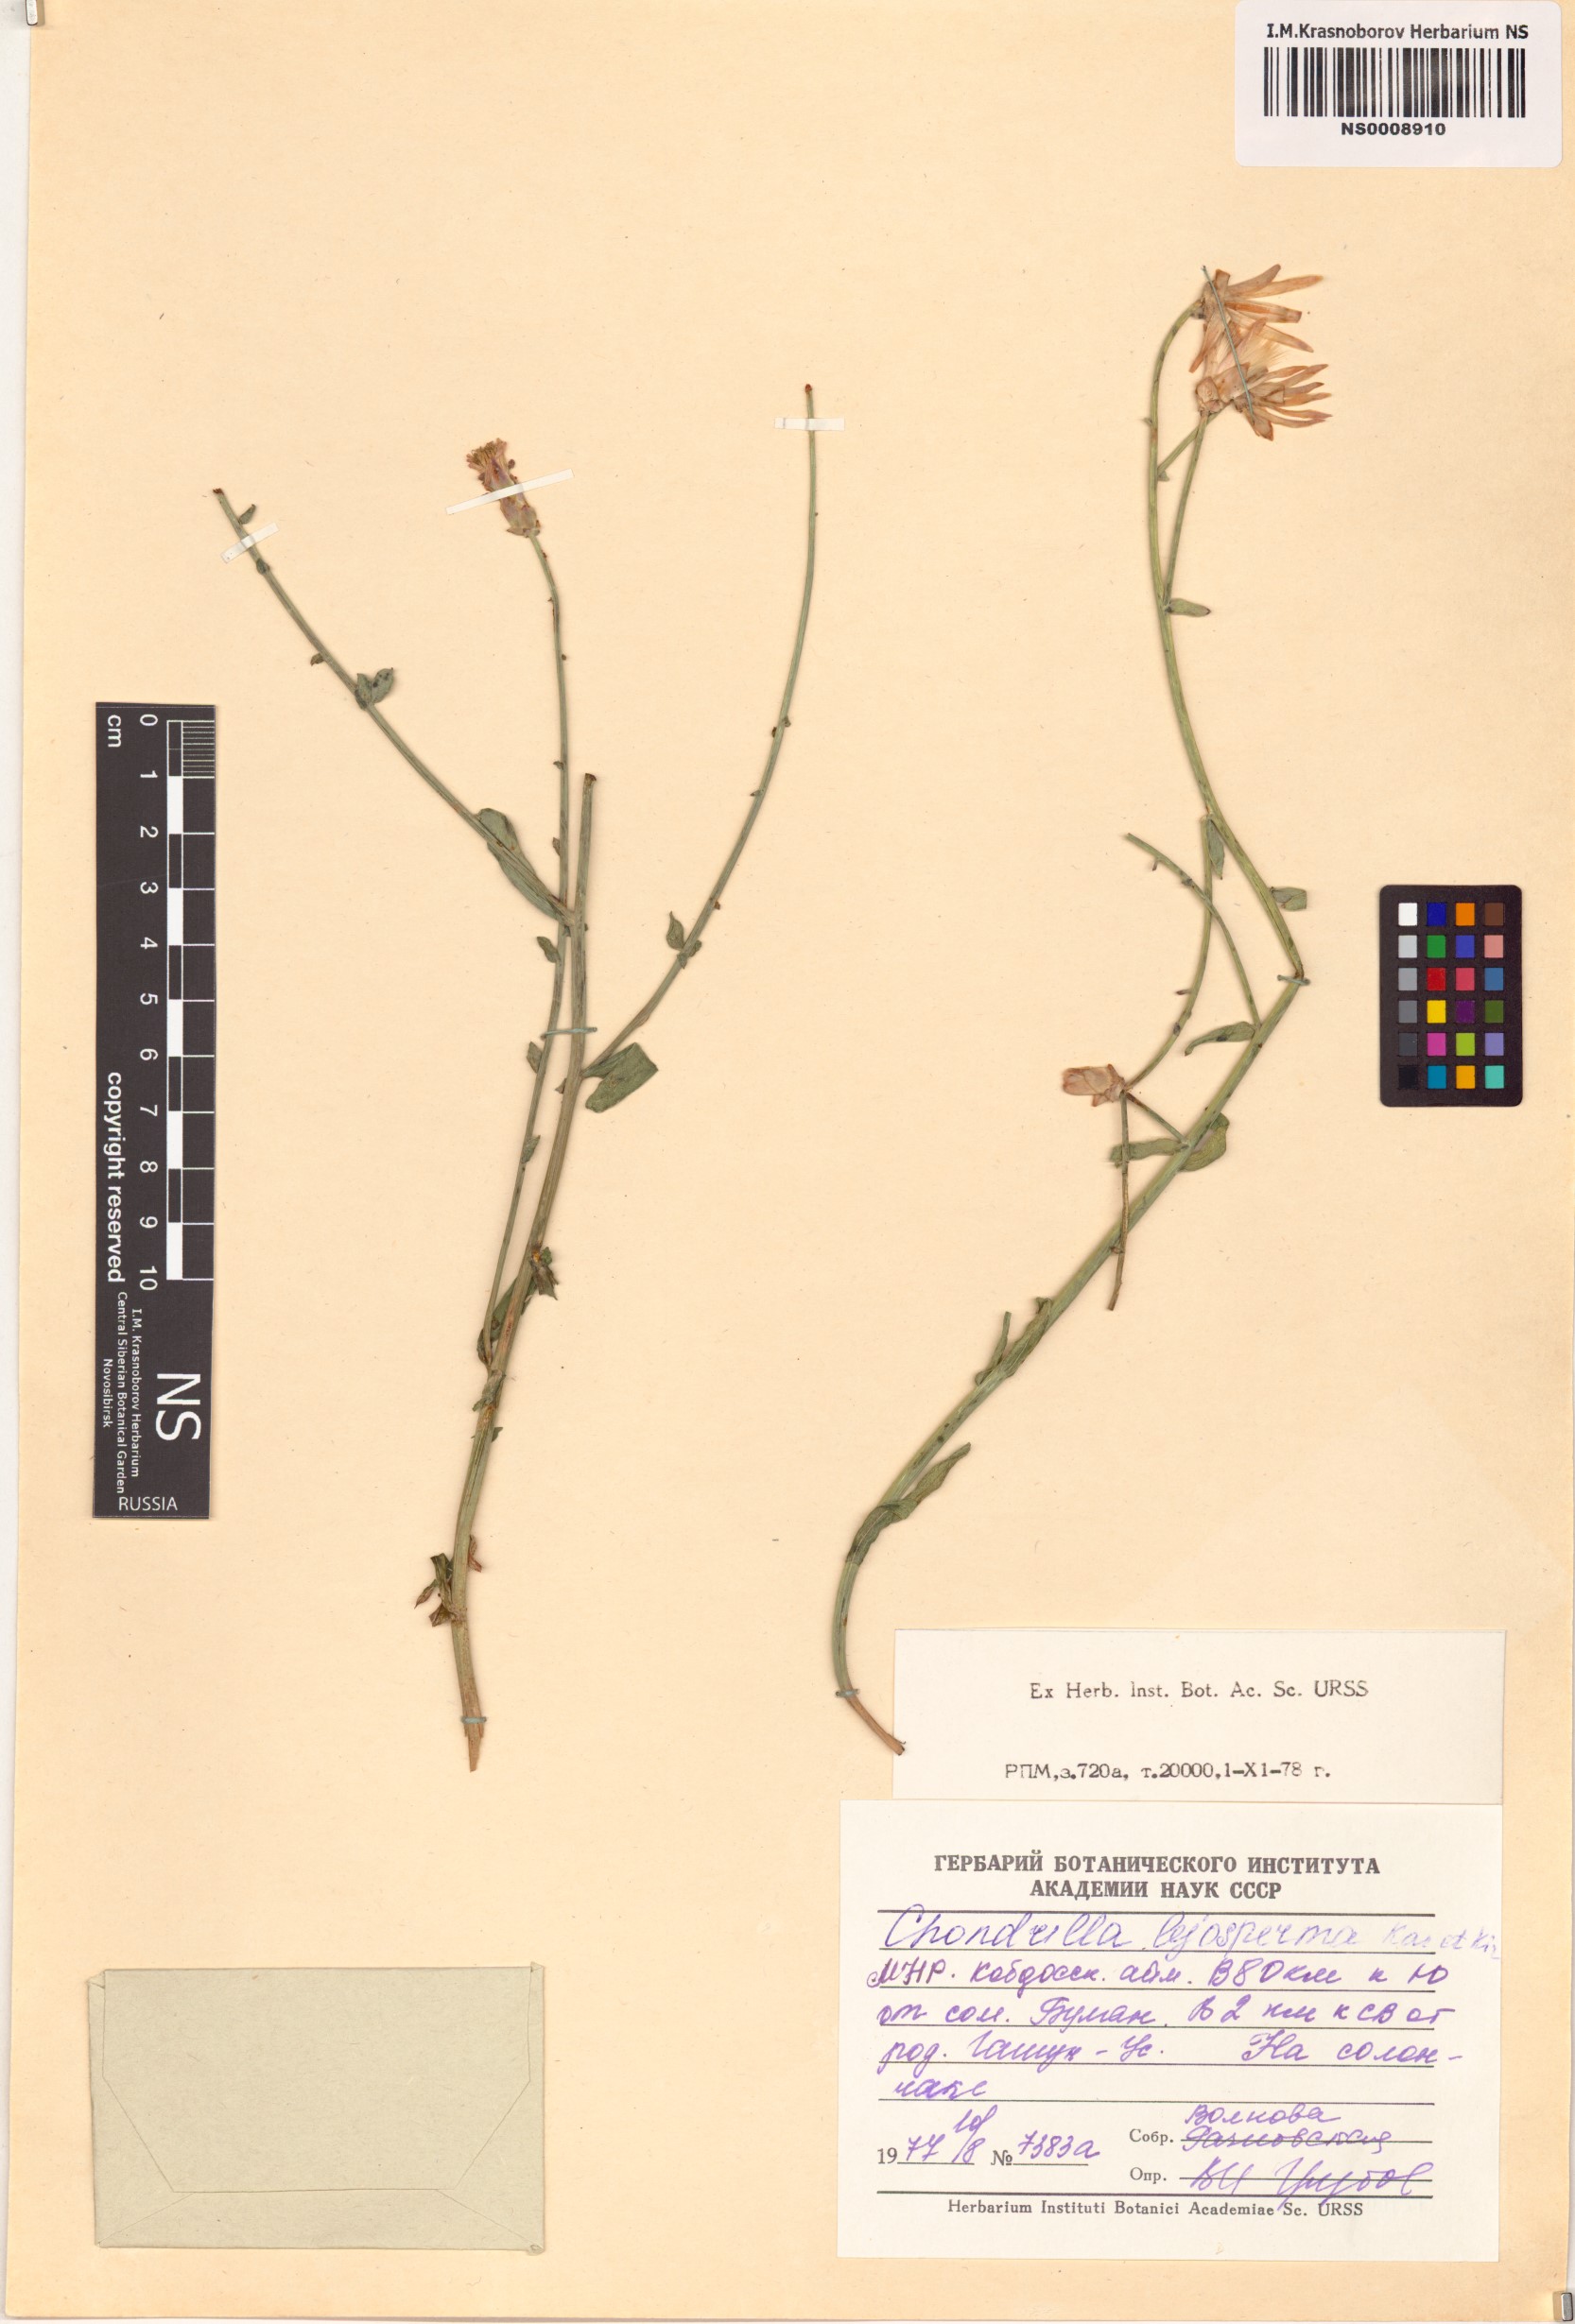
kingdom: Plantae
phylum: Tracheophyta
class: Magnoliopsida
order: Asterales
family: Asteraceae
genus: Chondrilla
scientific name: Chondrilla lejosperma
